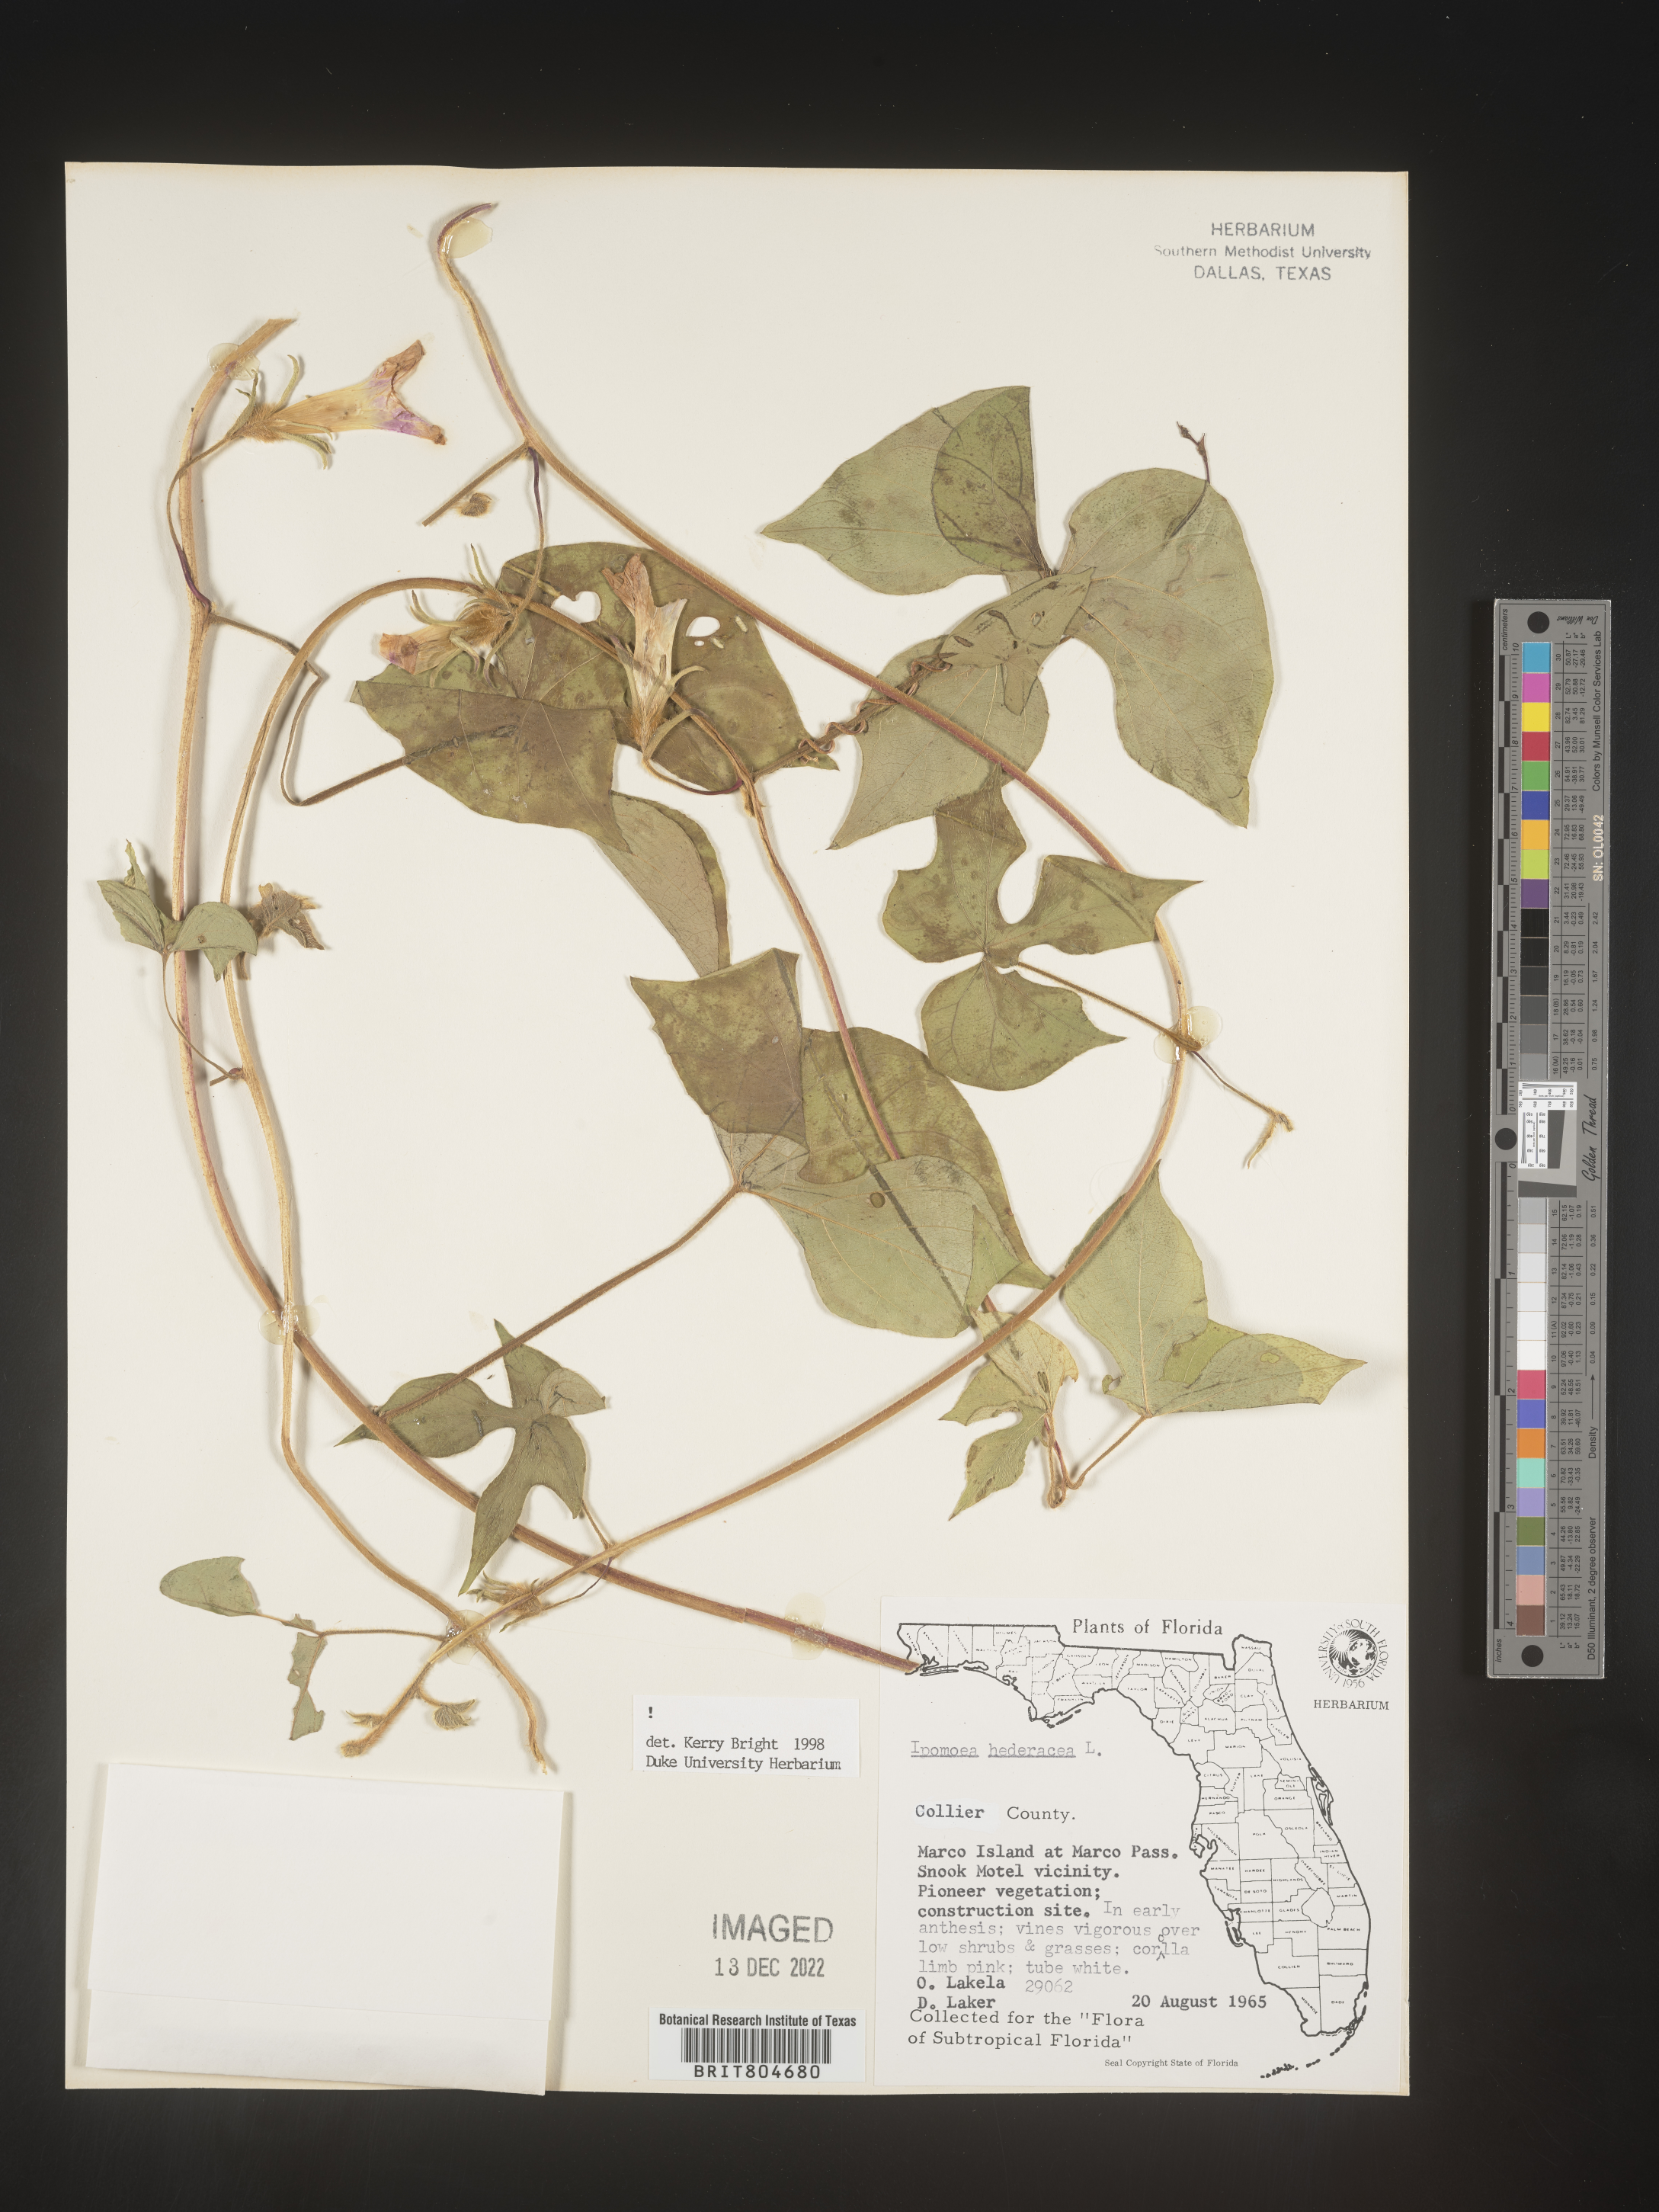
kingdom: Plantae
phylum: Tracheophyta
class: Magnoliopsida
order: Solanales
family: Convolvulaceae
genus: Ipomoea
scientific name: Ipomoea hederacea
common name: Ivy-leaved morning-glory
